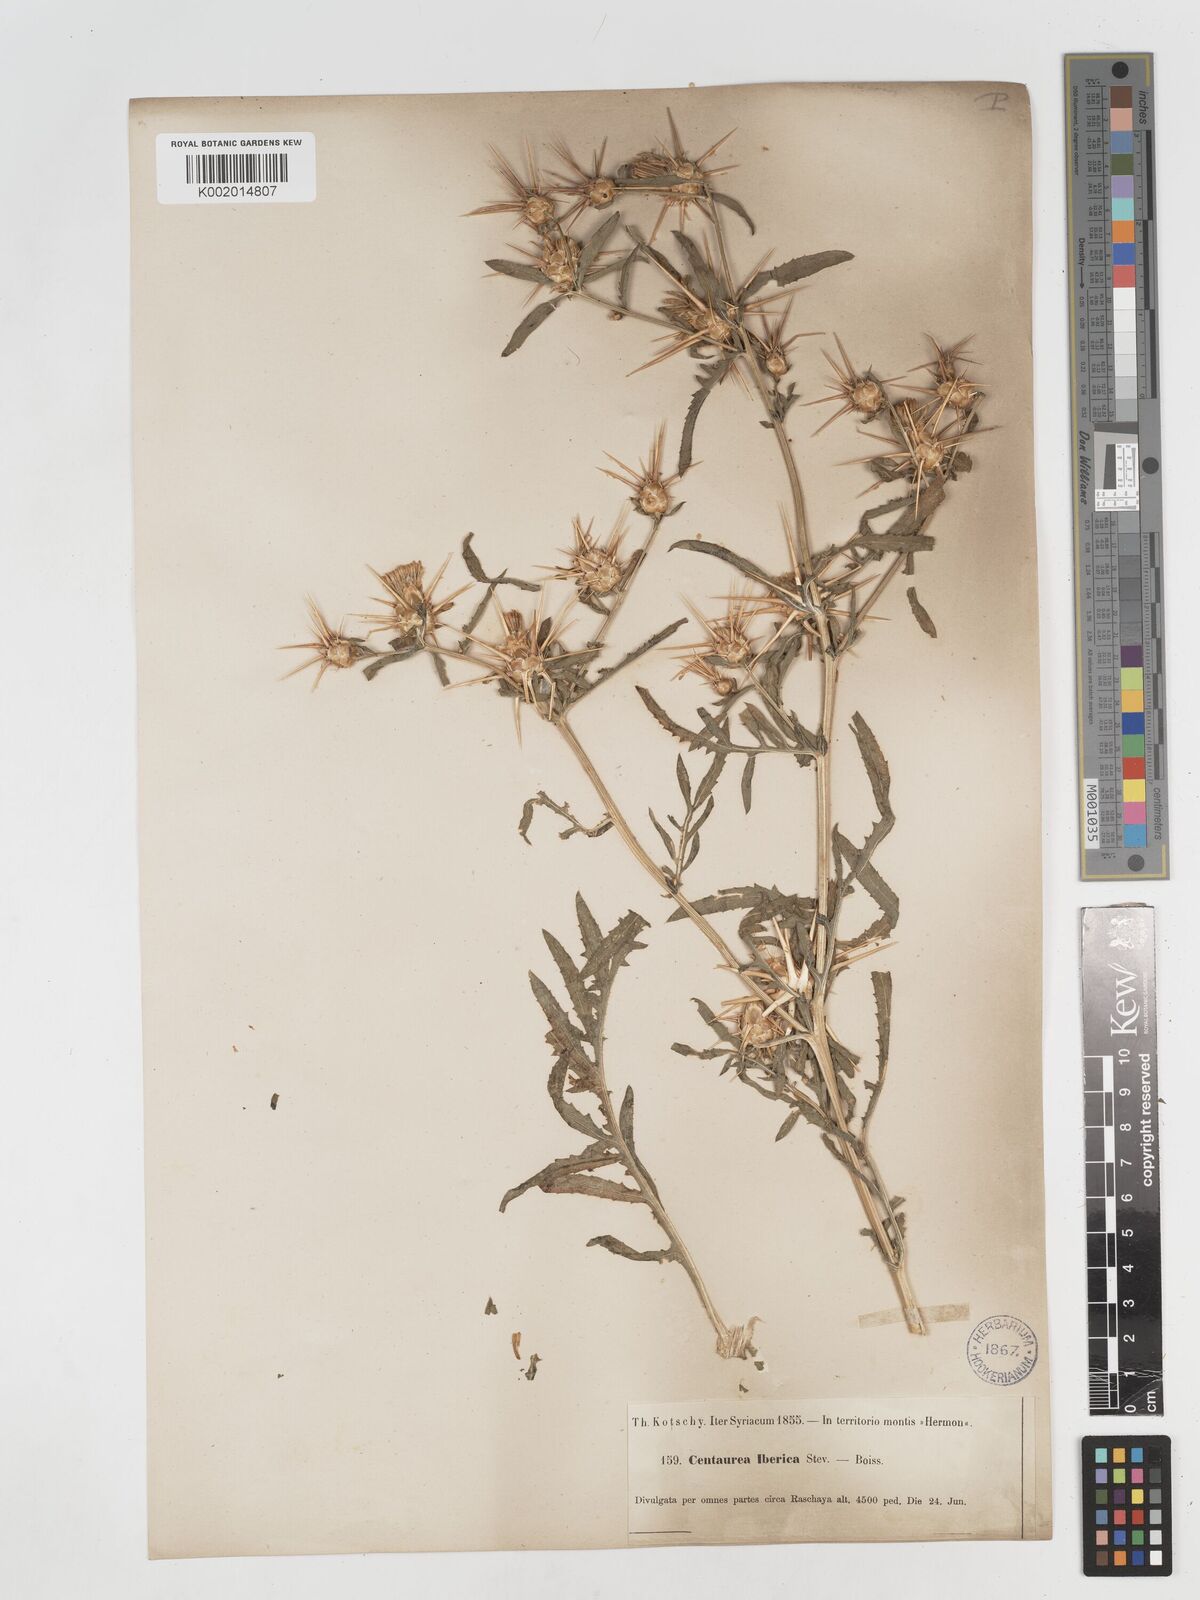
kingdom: Plantae
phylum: Tracheophyta
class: Magnoliopsida
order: Asterales
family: Asteraceae
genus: Centaurea
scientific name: Centaurea iberica
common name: Iberian knapweed
